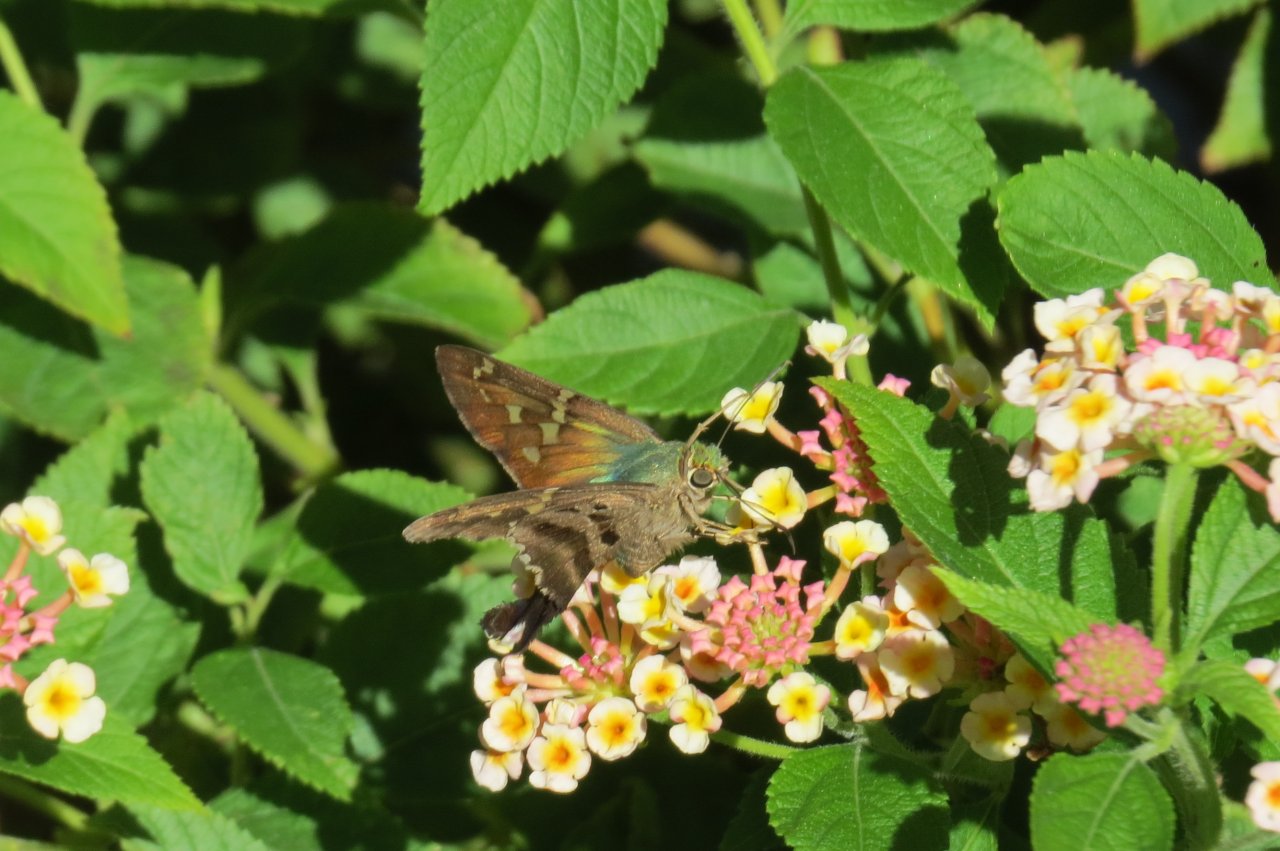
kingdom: Animalia
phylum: Arthropoda
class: Insecta
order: Lepidoptera
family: Hesperiidae
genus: Urbanus
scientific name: Urbanus proteus
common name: Long-tailed Skipper
